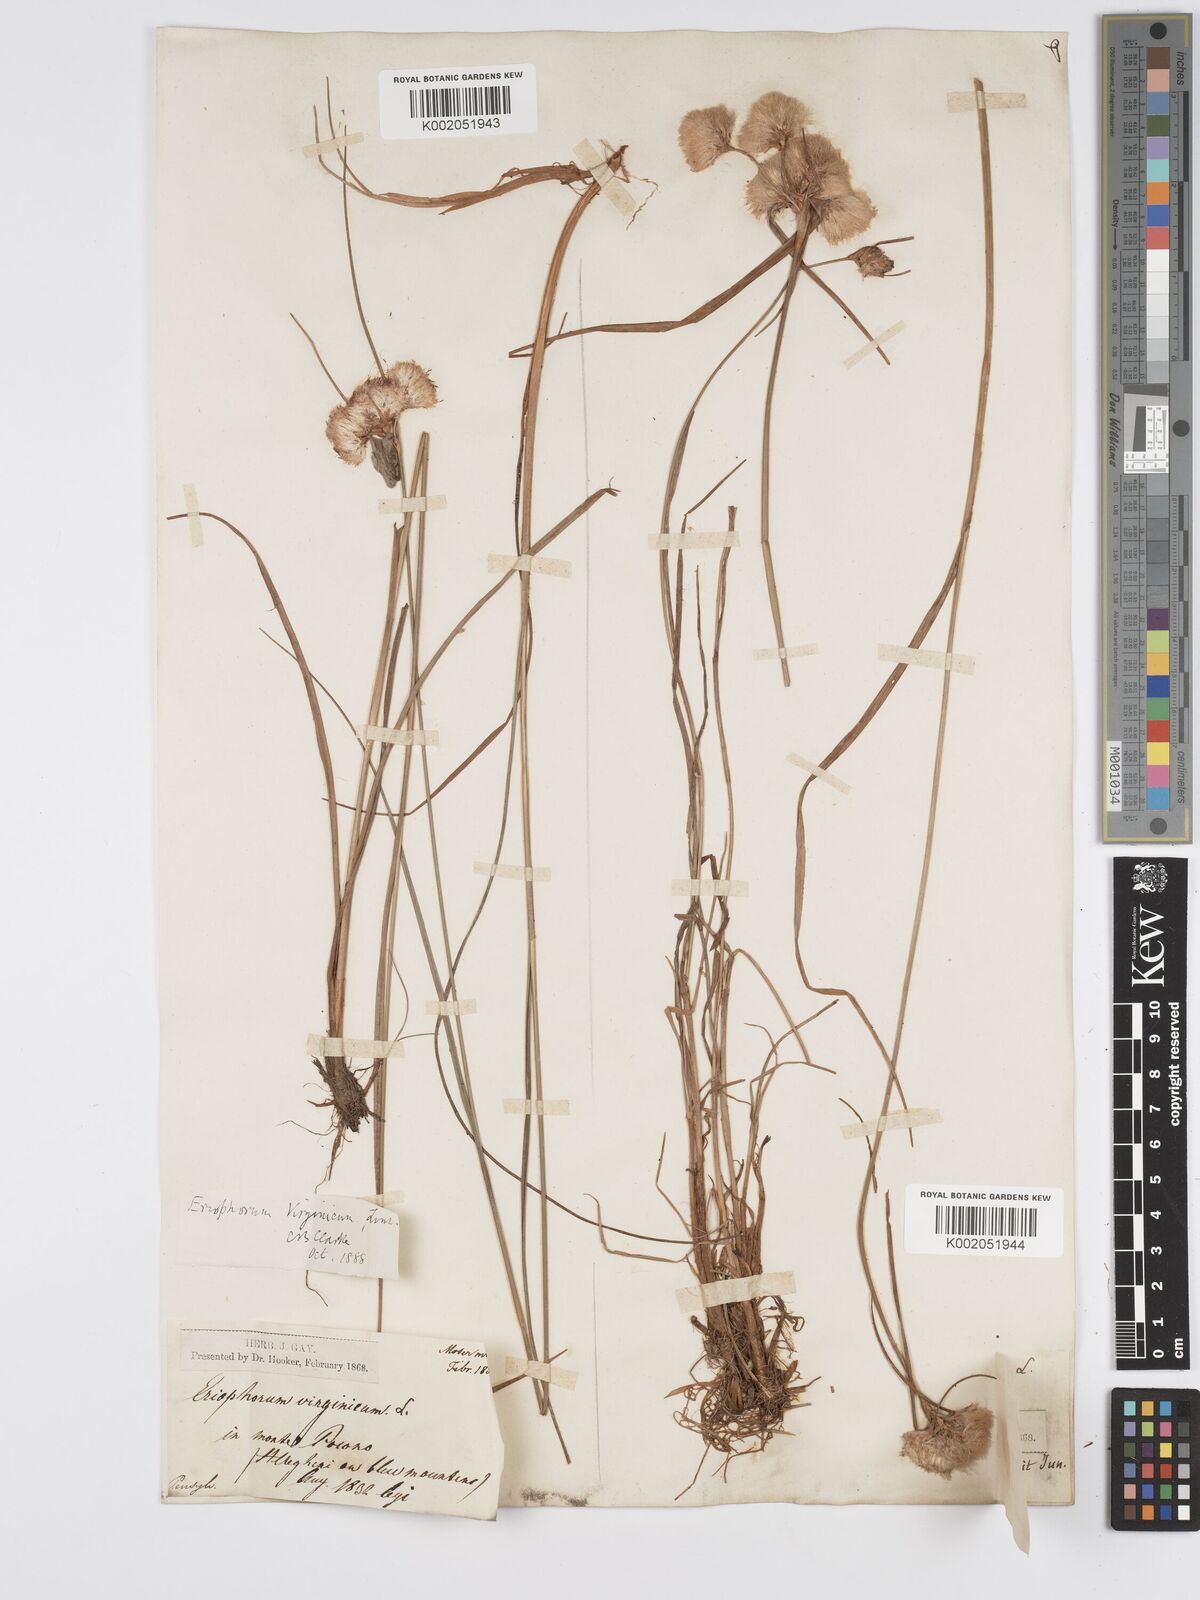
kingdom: Plantae
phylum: Tracheophyta
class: Liliopsida
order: Poales
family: Cyperaceae
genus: Eriophorum
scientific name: Eriophorum virginicum
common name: Tawny cottongrass
